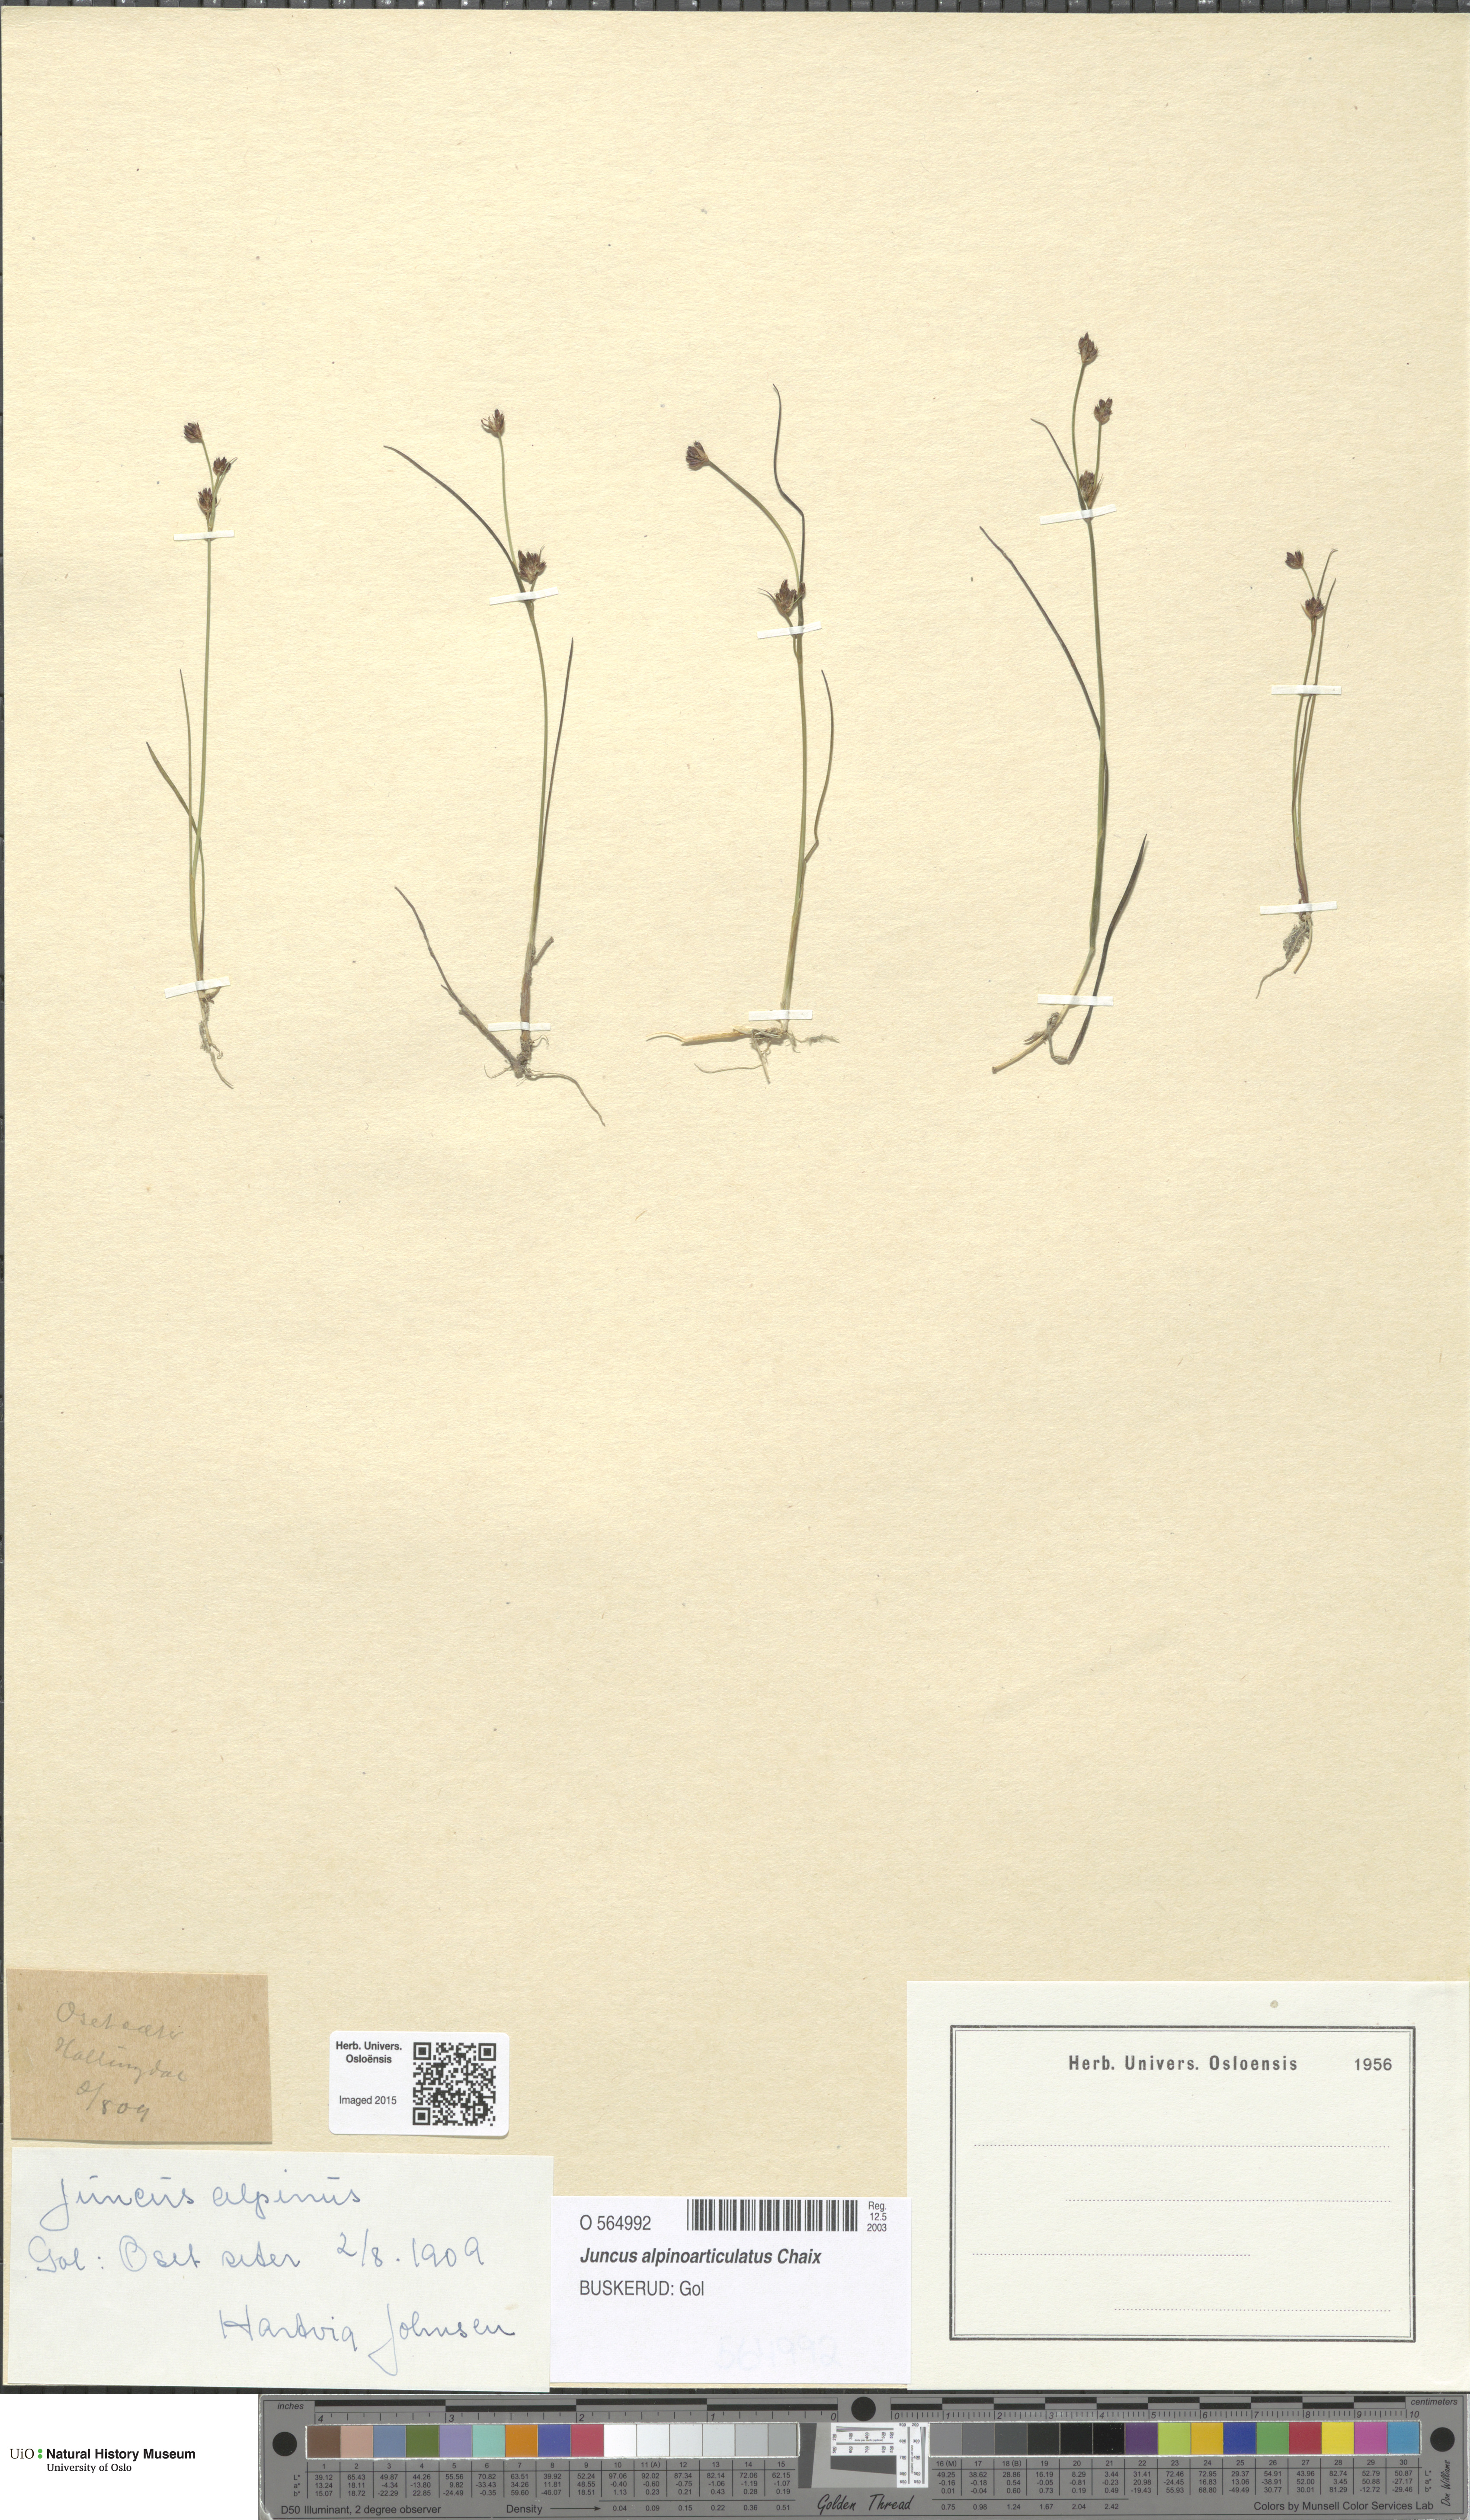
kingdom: Plantae
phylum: Tracheophyta
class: Liliopsida
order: Poales
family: Juncaceae
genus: Juncus
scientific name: Juncus alpinoarticulatus
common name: Alpine rush
